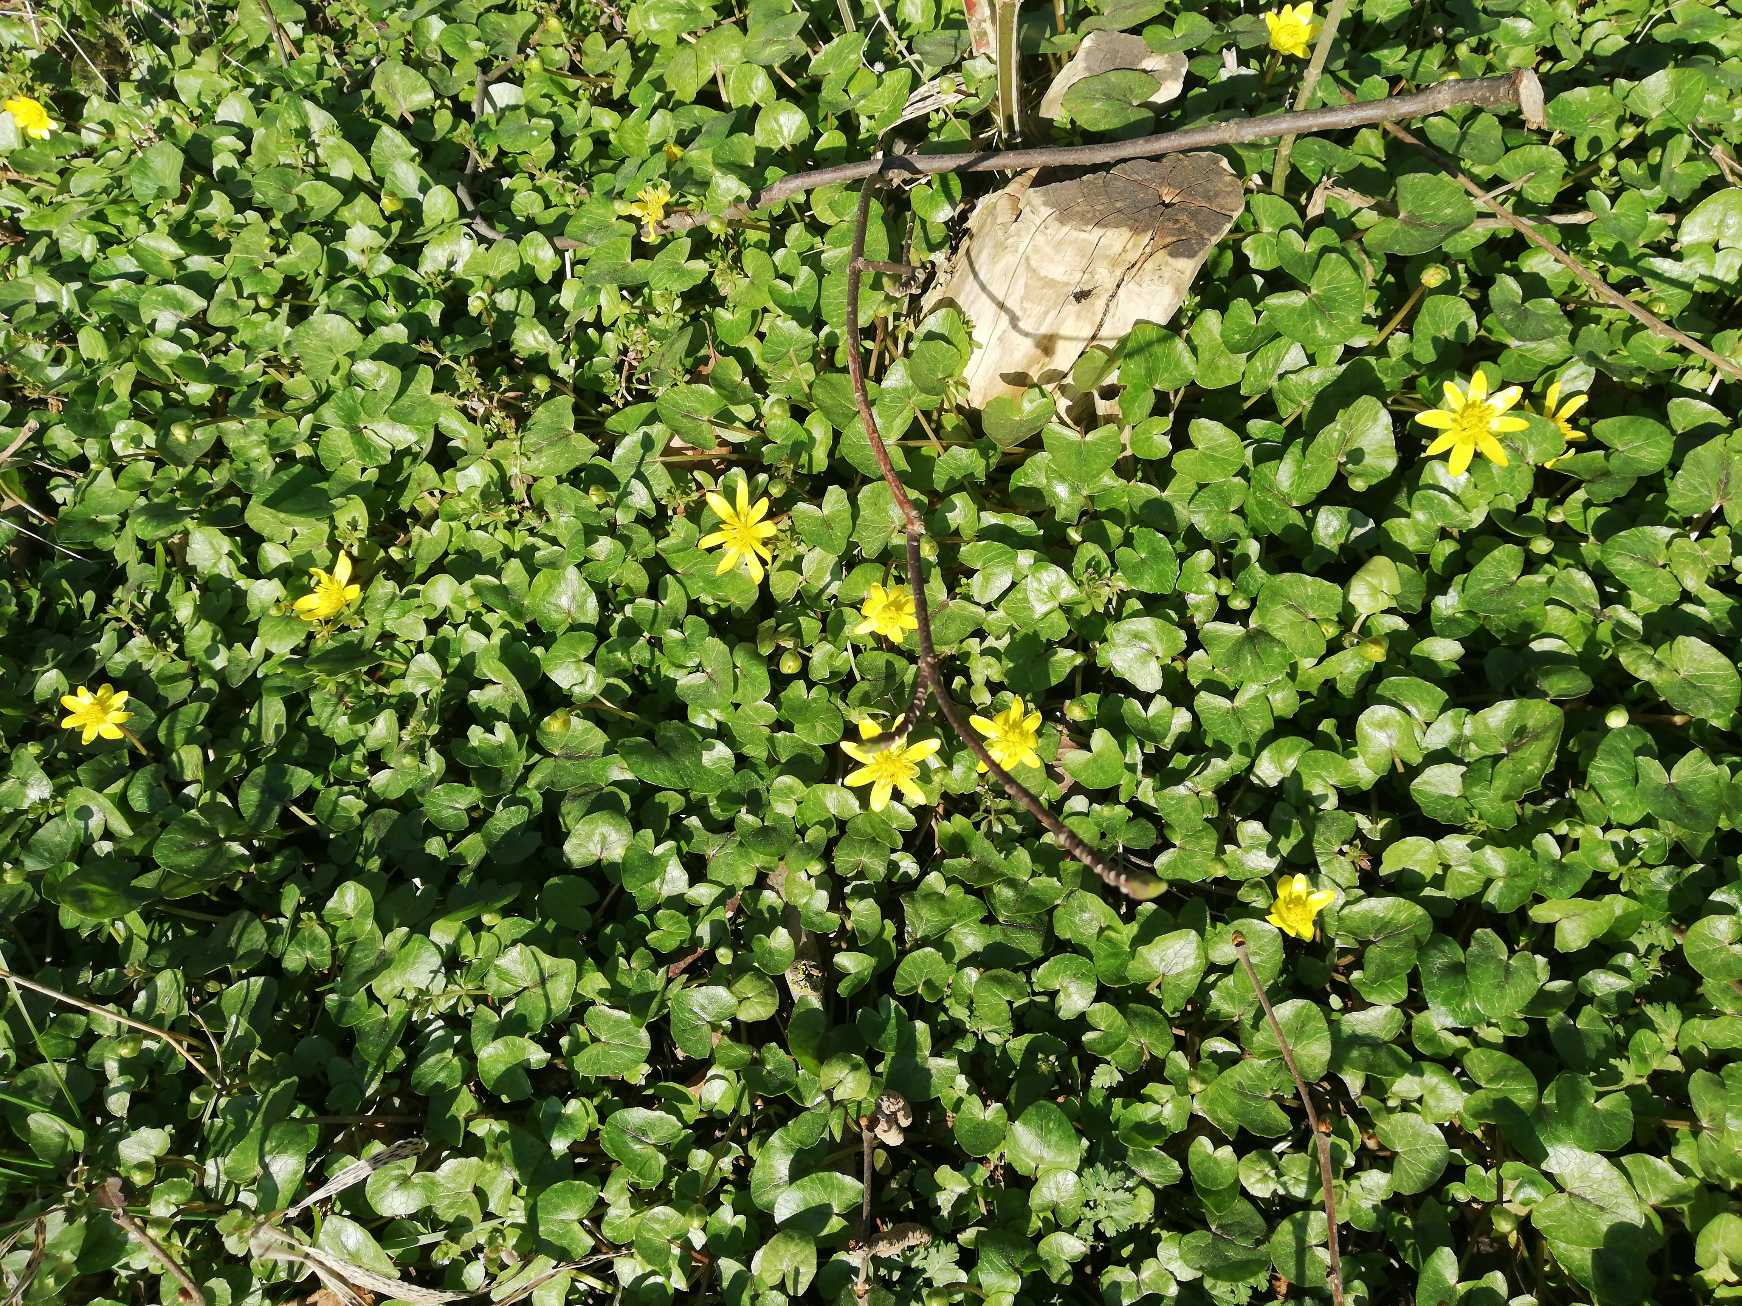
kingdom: Plantae
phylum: Tracheophyta
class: Magnoliopsida
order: Ranunculales
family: Ranunculaceae
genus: Ficaria
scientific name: Ficaria verna
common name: Vorterod
